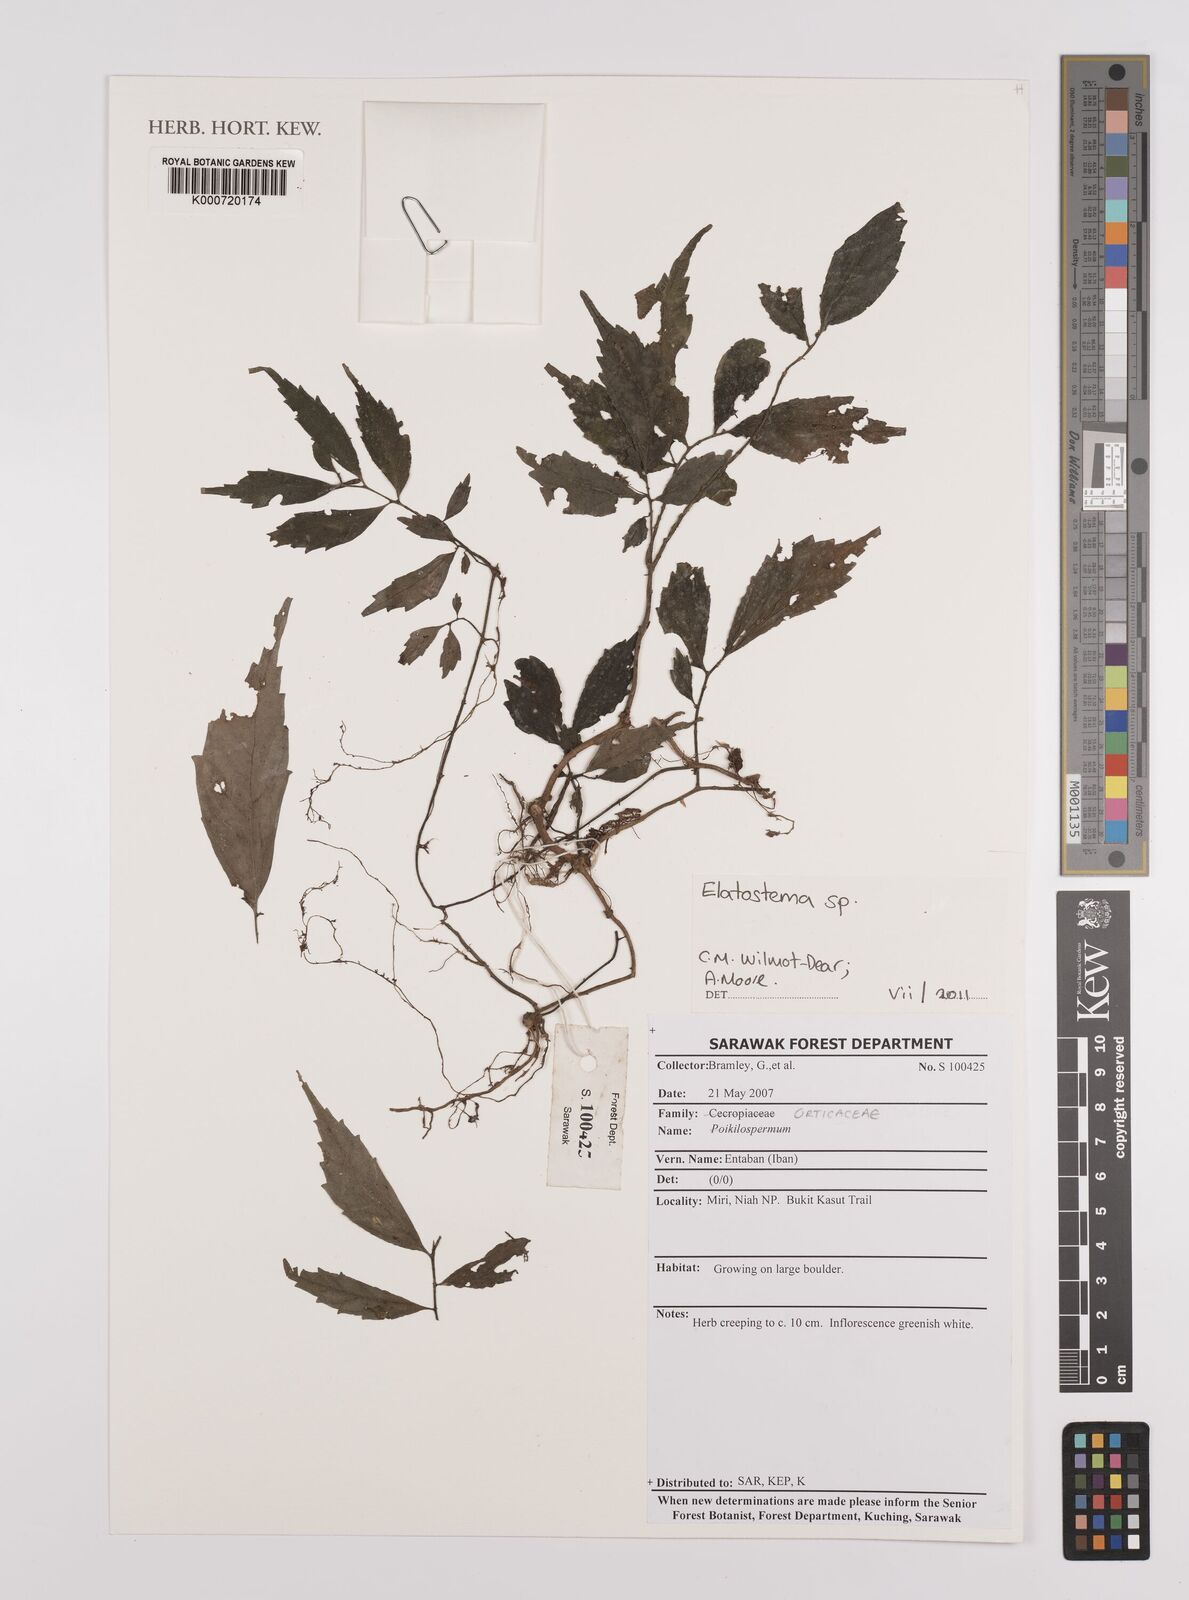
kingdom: Plantae
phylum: Tracheophyta
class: Magnoliopsida
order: Rosales
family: Urticaceae
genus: Elatostema
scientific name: Elatostema
